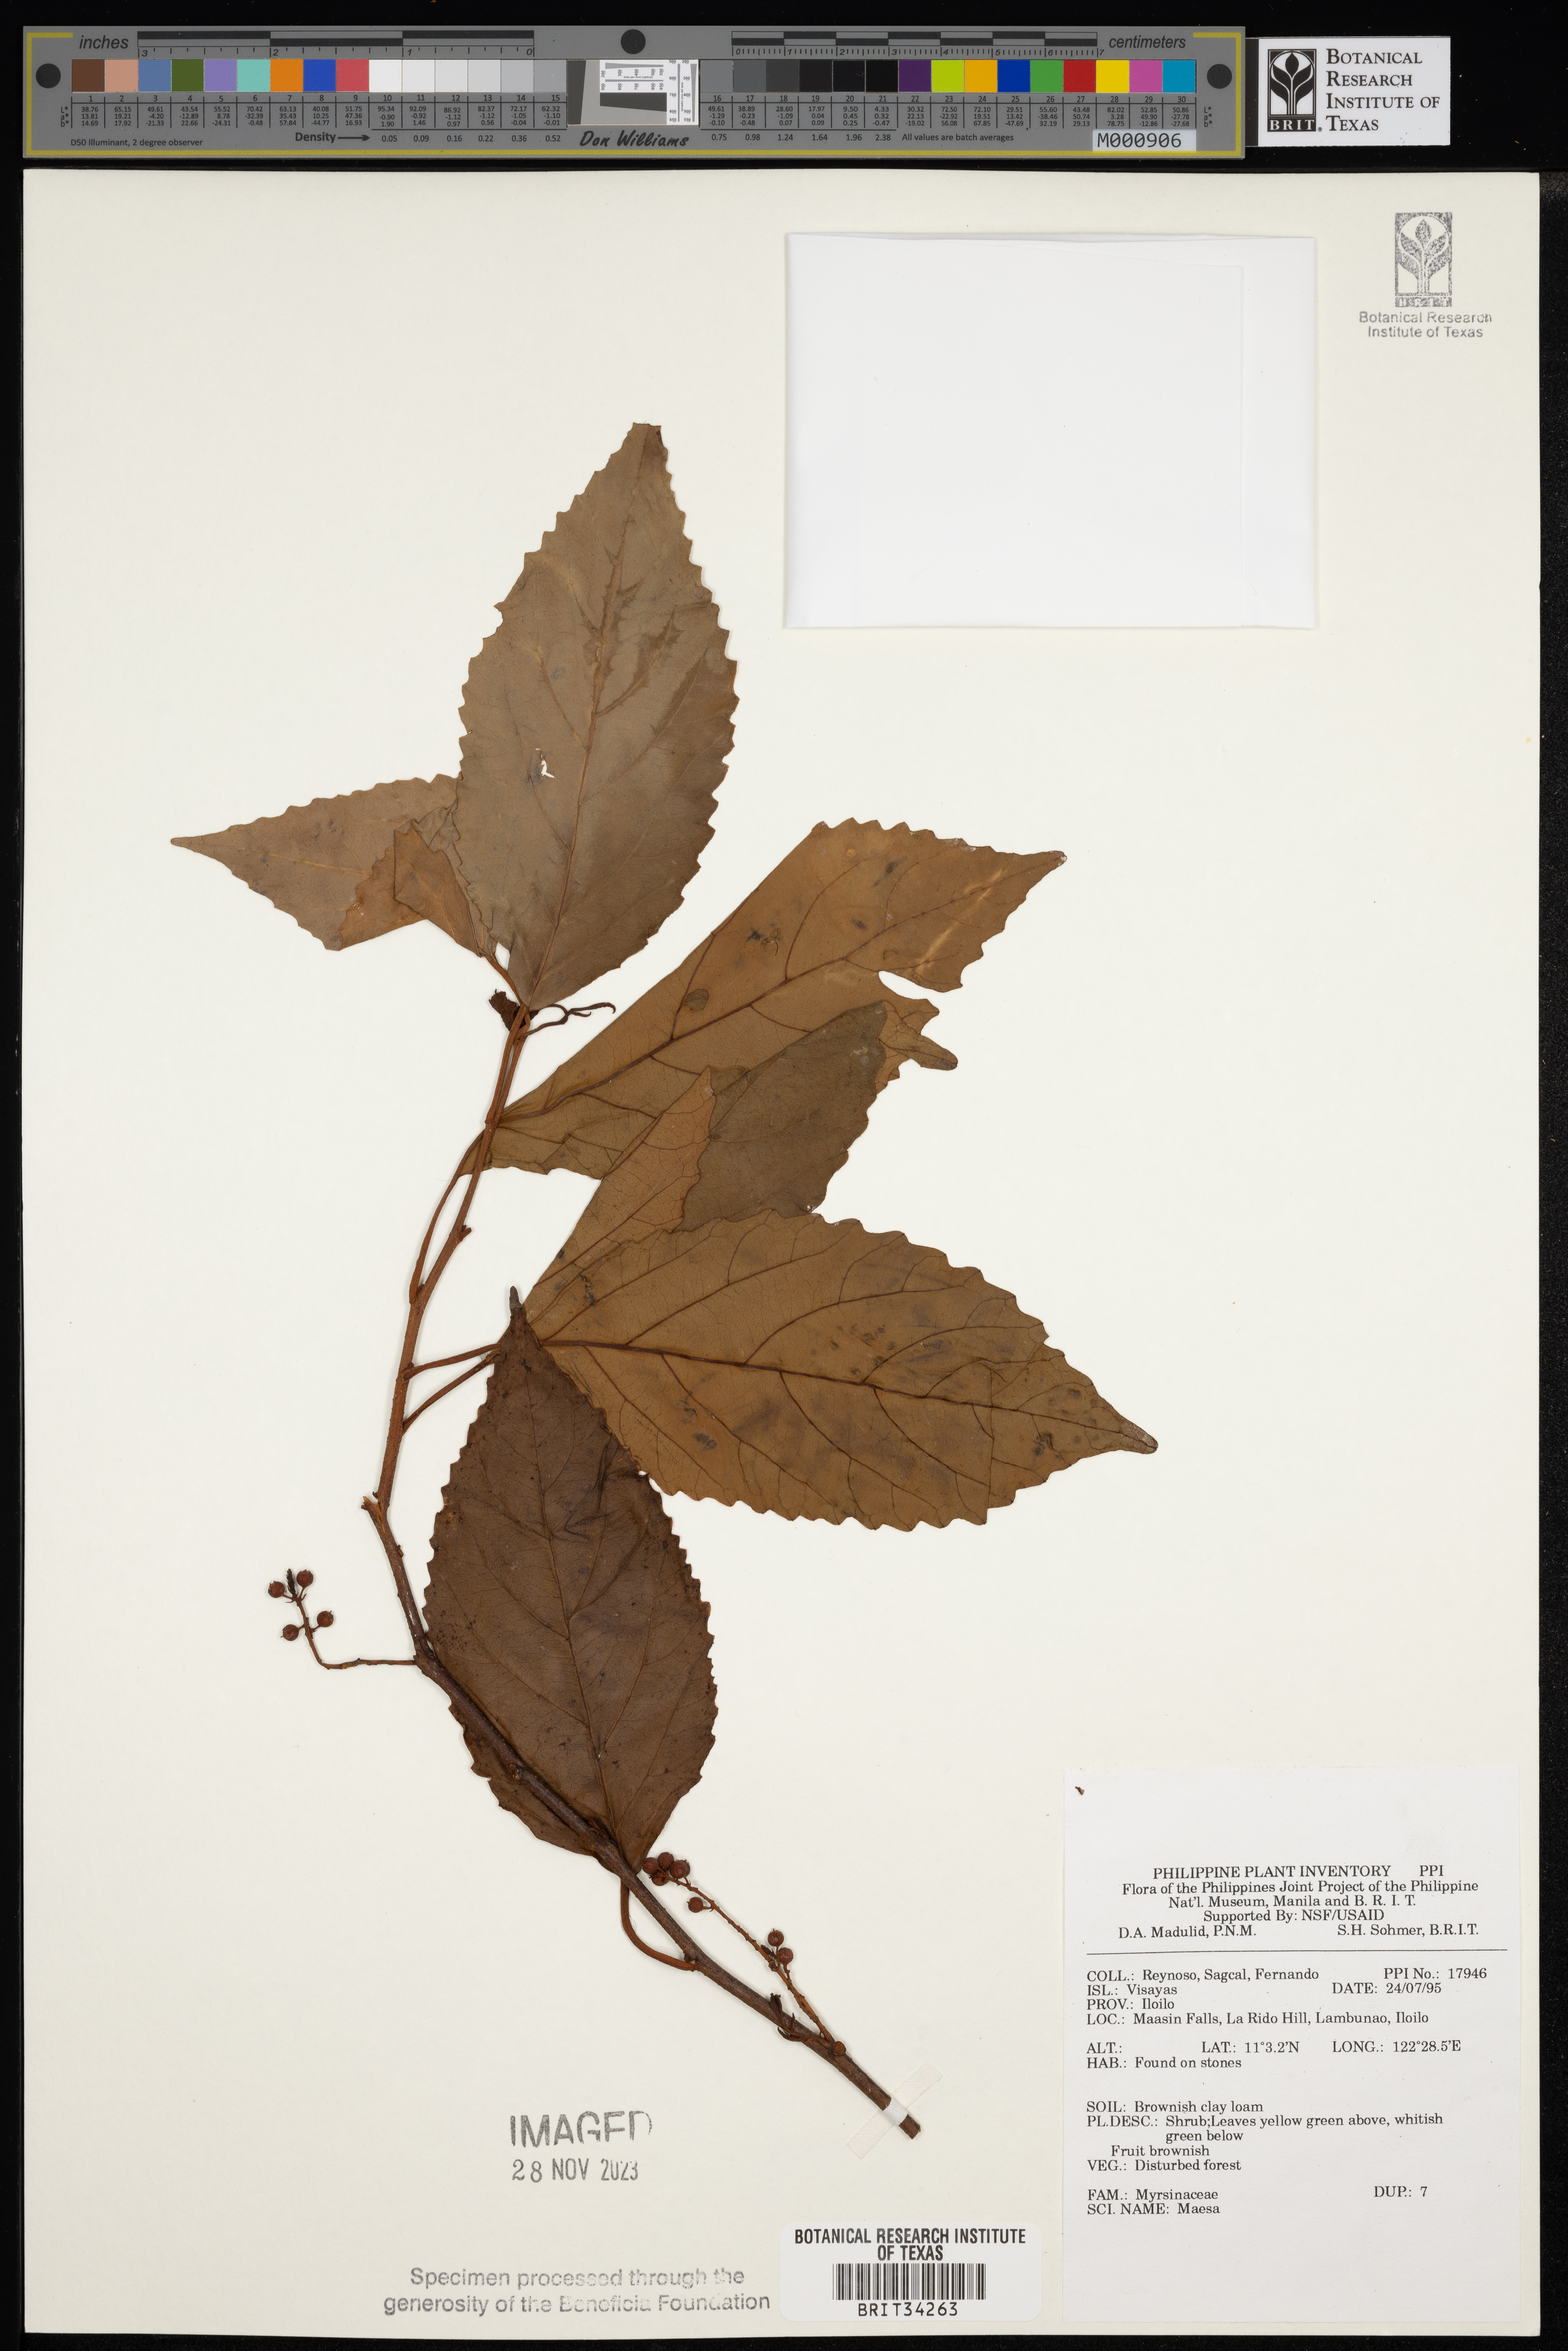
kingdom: Plantae
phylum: Tracheophyta
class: Magnoliopsida
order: Ericales
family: Primulaceae
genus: Maesa
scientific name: Maesa
